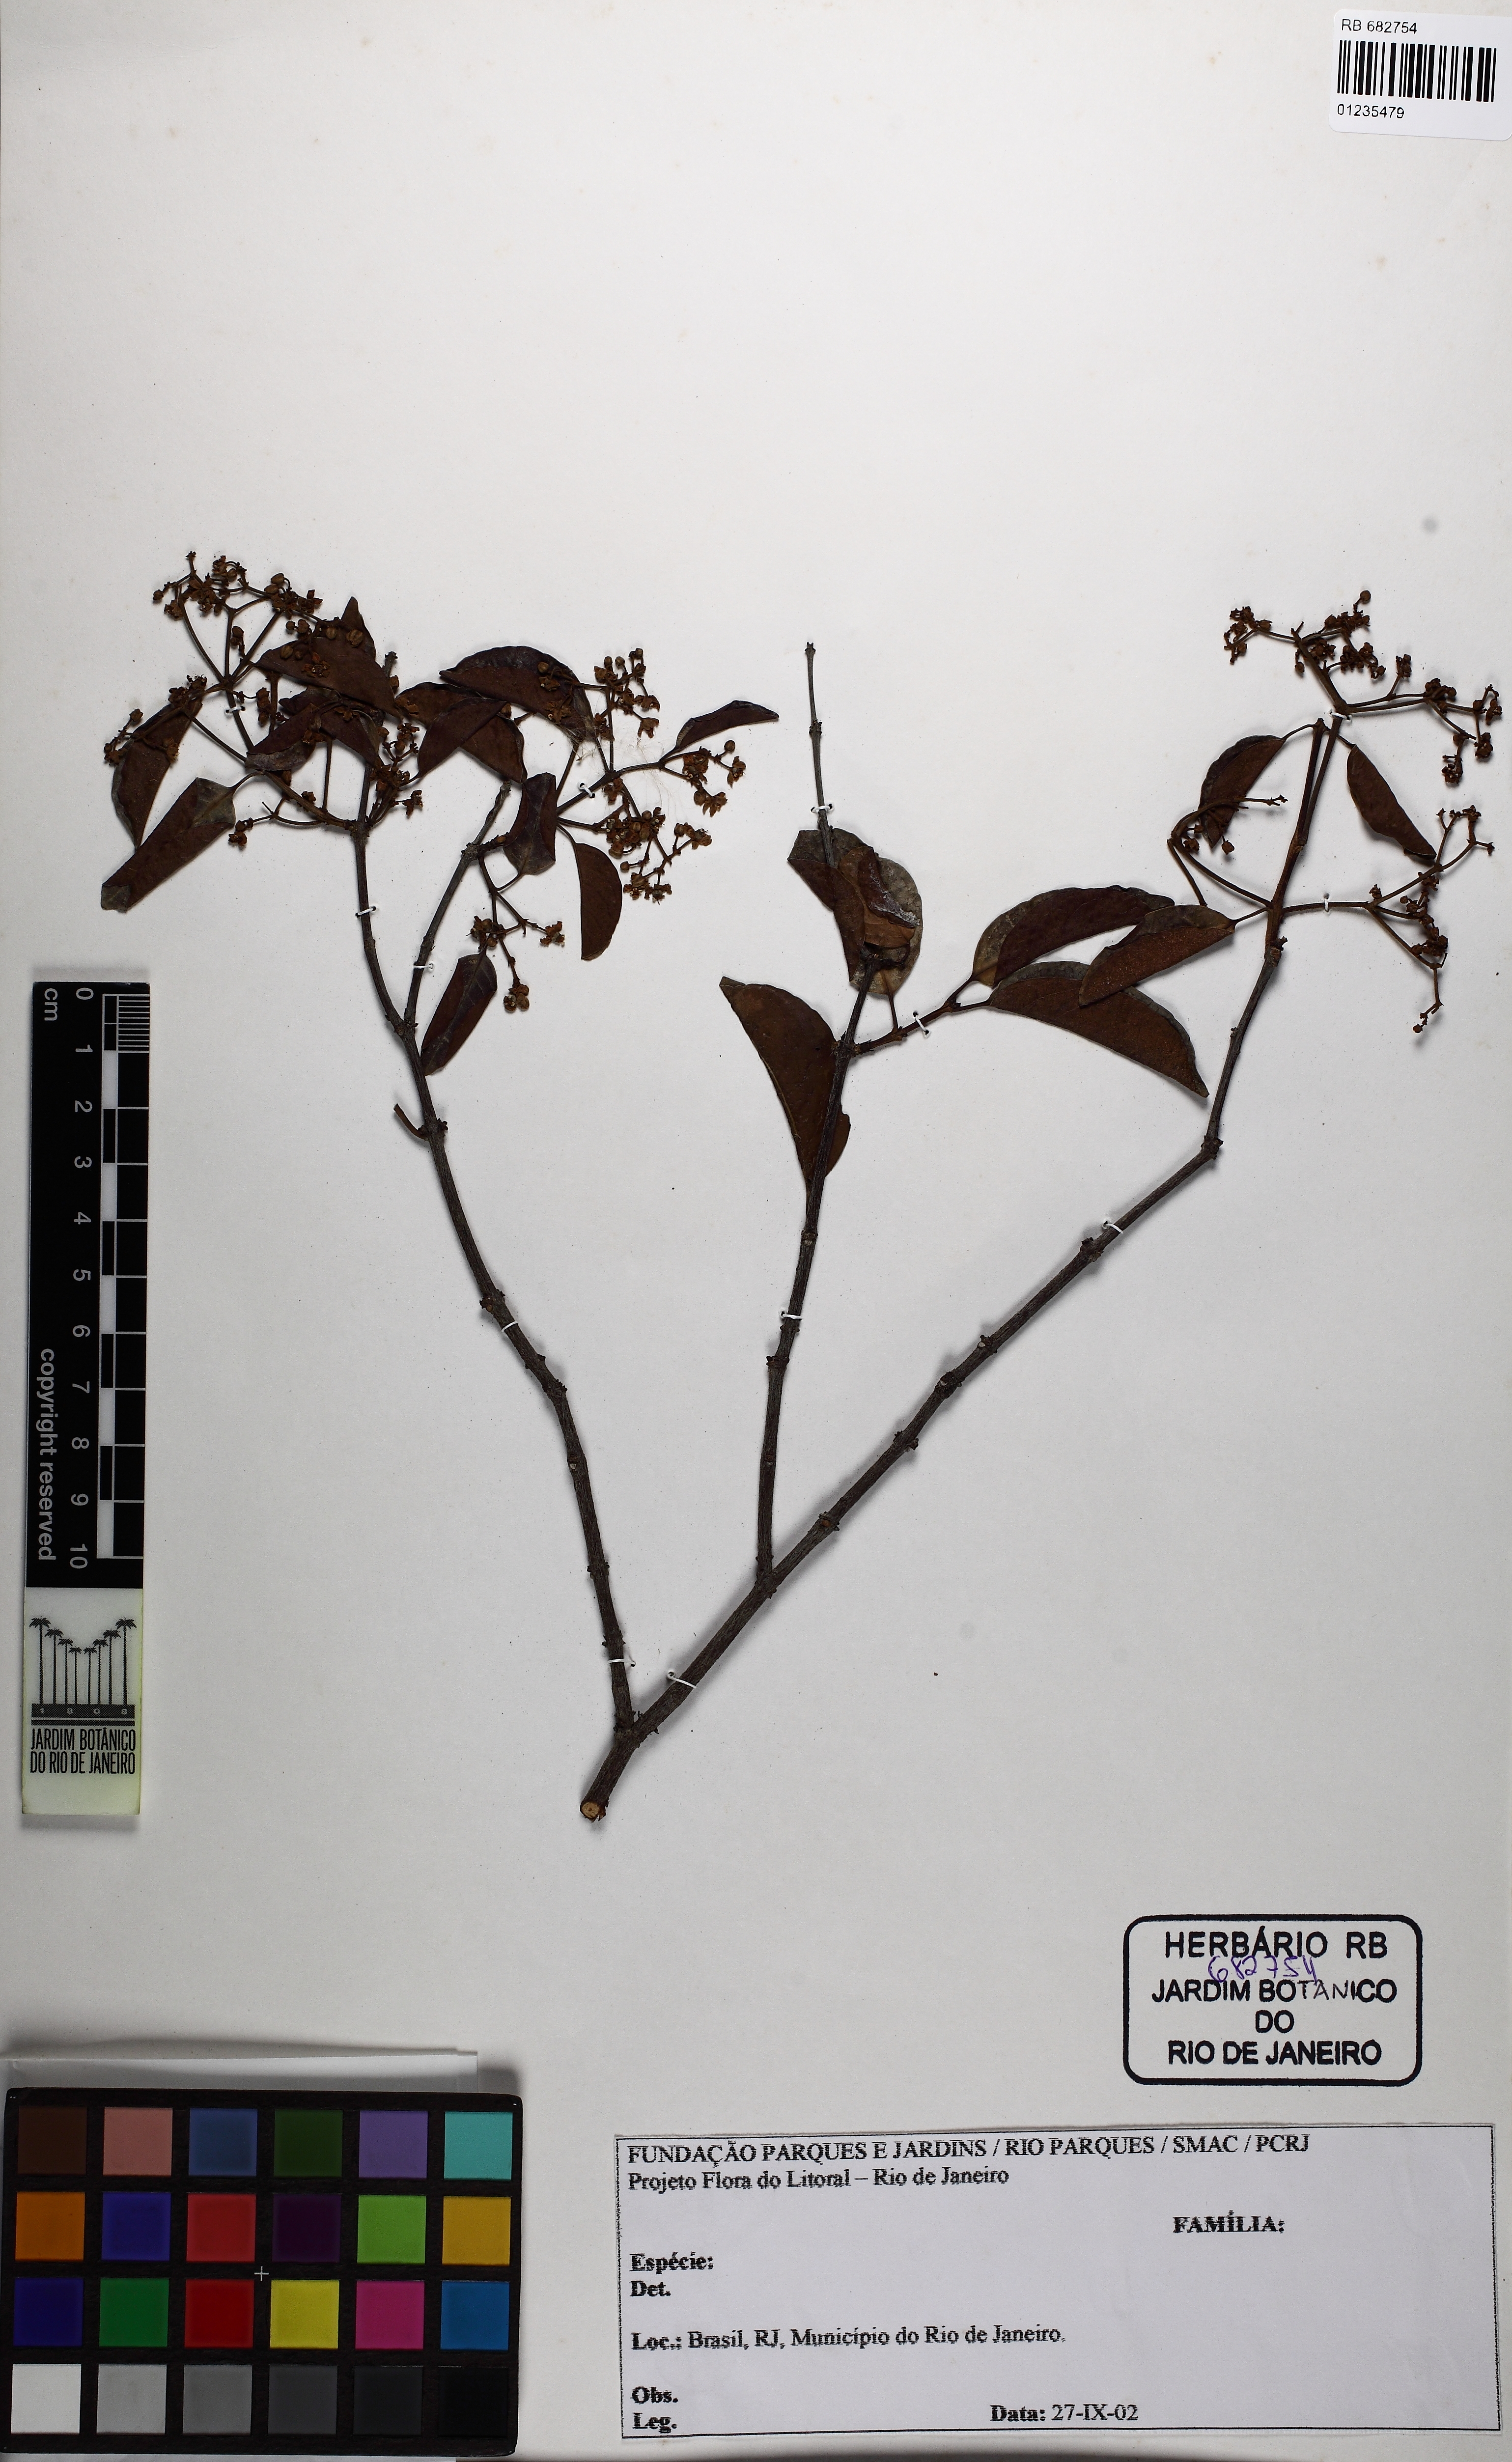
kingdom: Plantae
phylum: Tracheophyta
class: Magnoliopsida
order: Celastrales
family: Celastraceae
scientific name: Celastraceae
